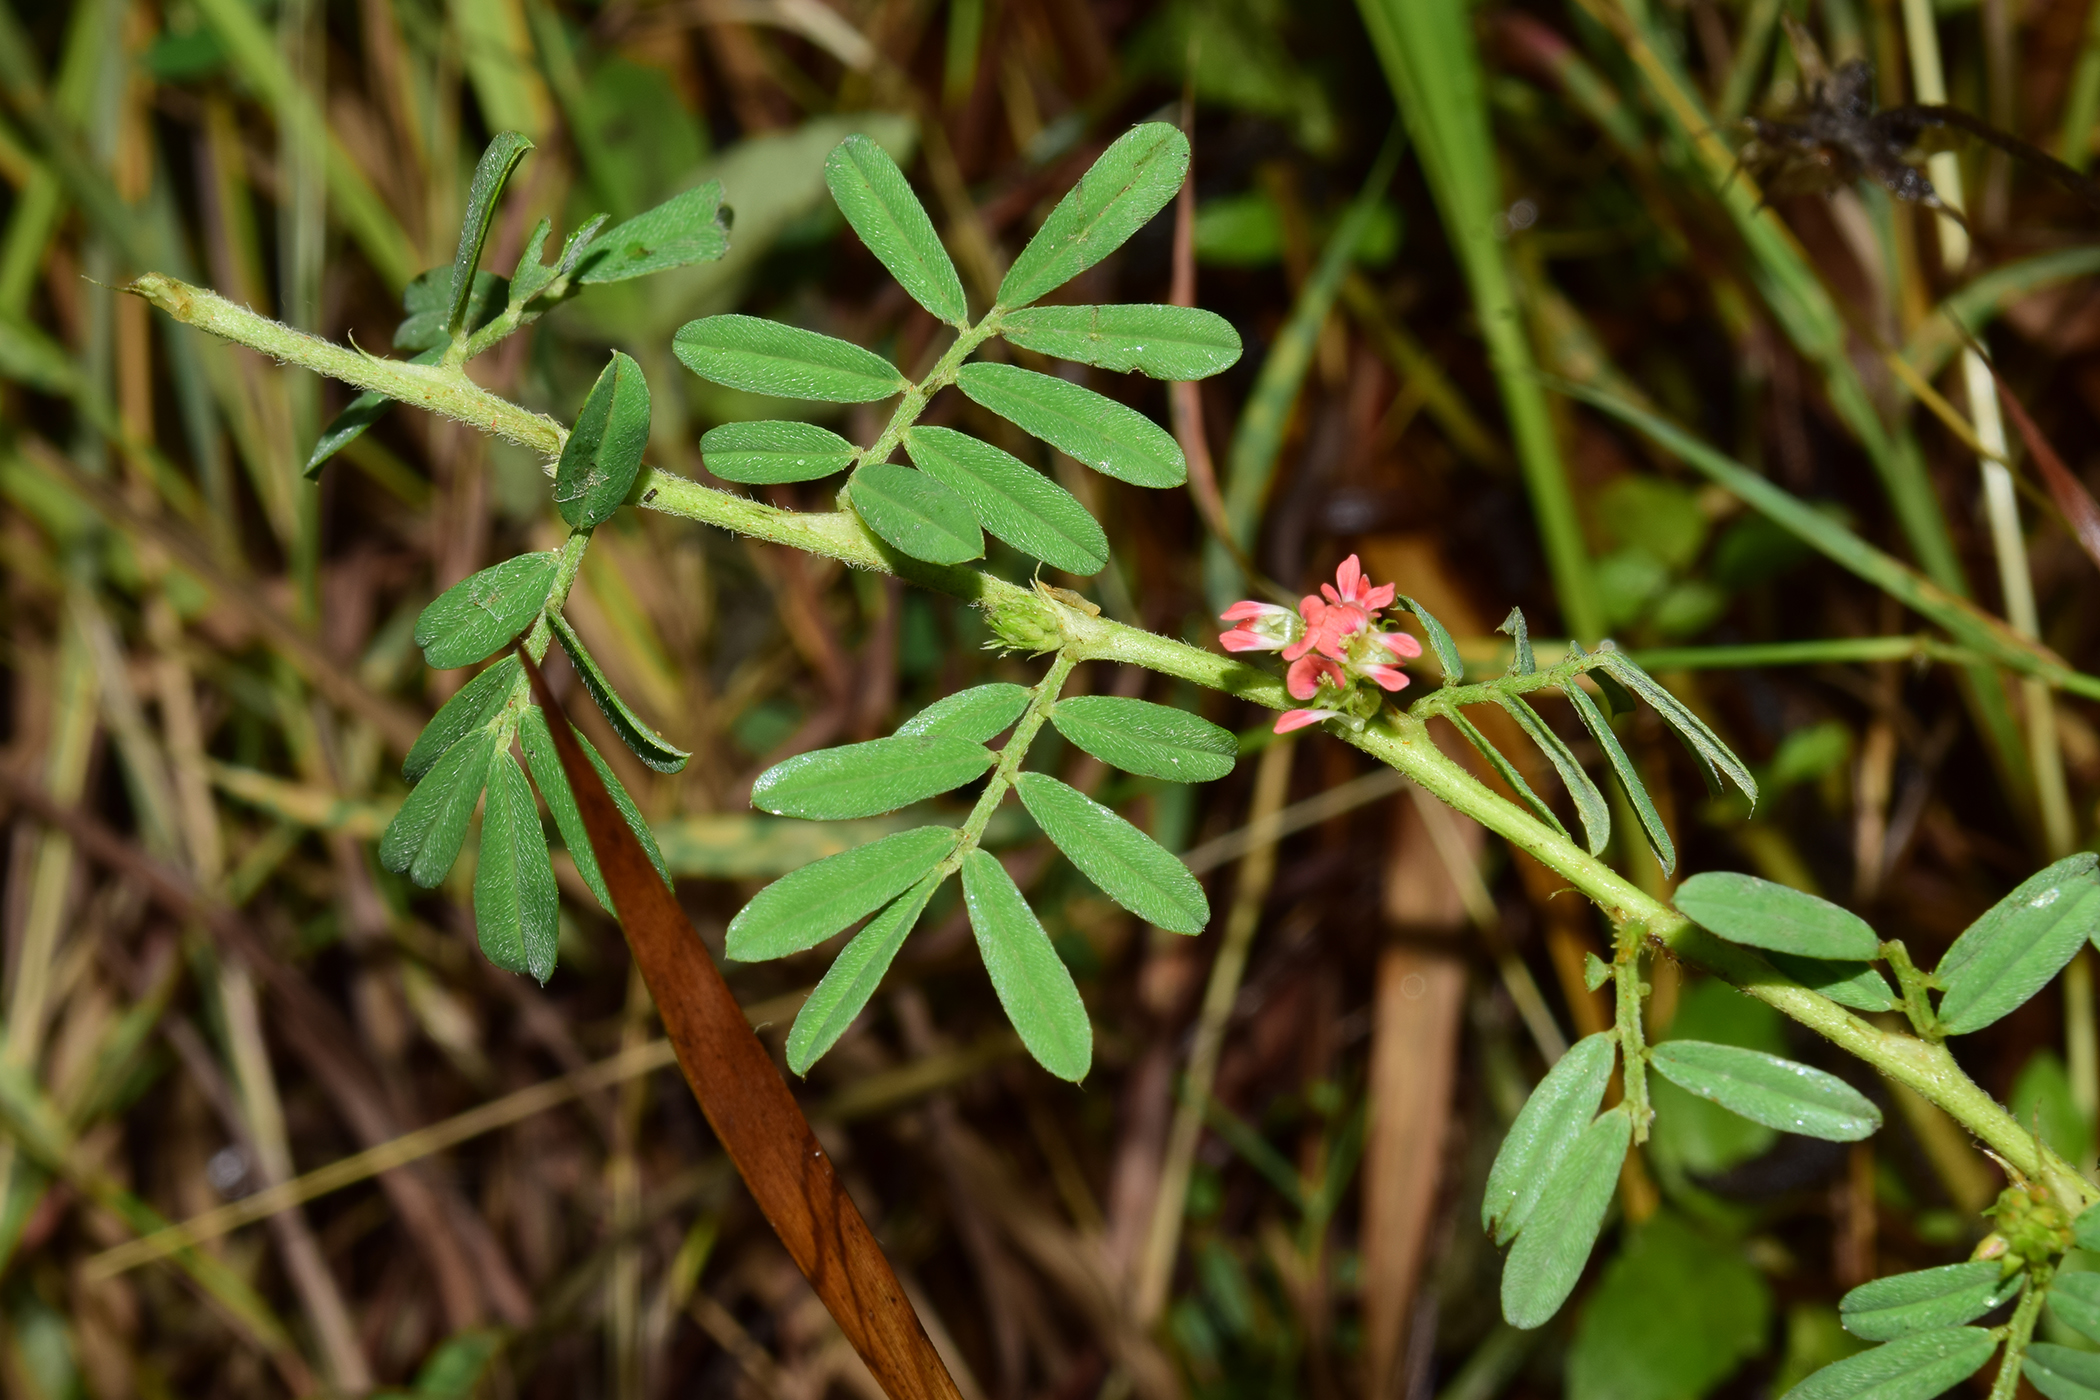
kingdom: Plantae
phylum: Tracheophyta
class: Magnoliopsida
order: Fabales
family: Fabaceae
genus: Indigofera
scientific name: Indigofera linnaei
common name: Nine-leaf indigo
